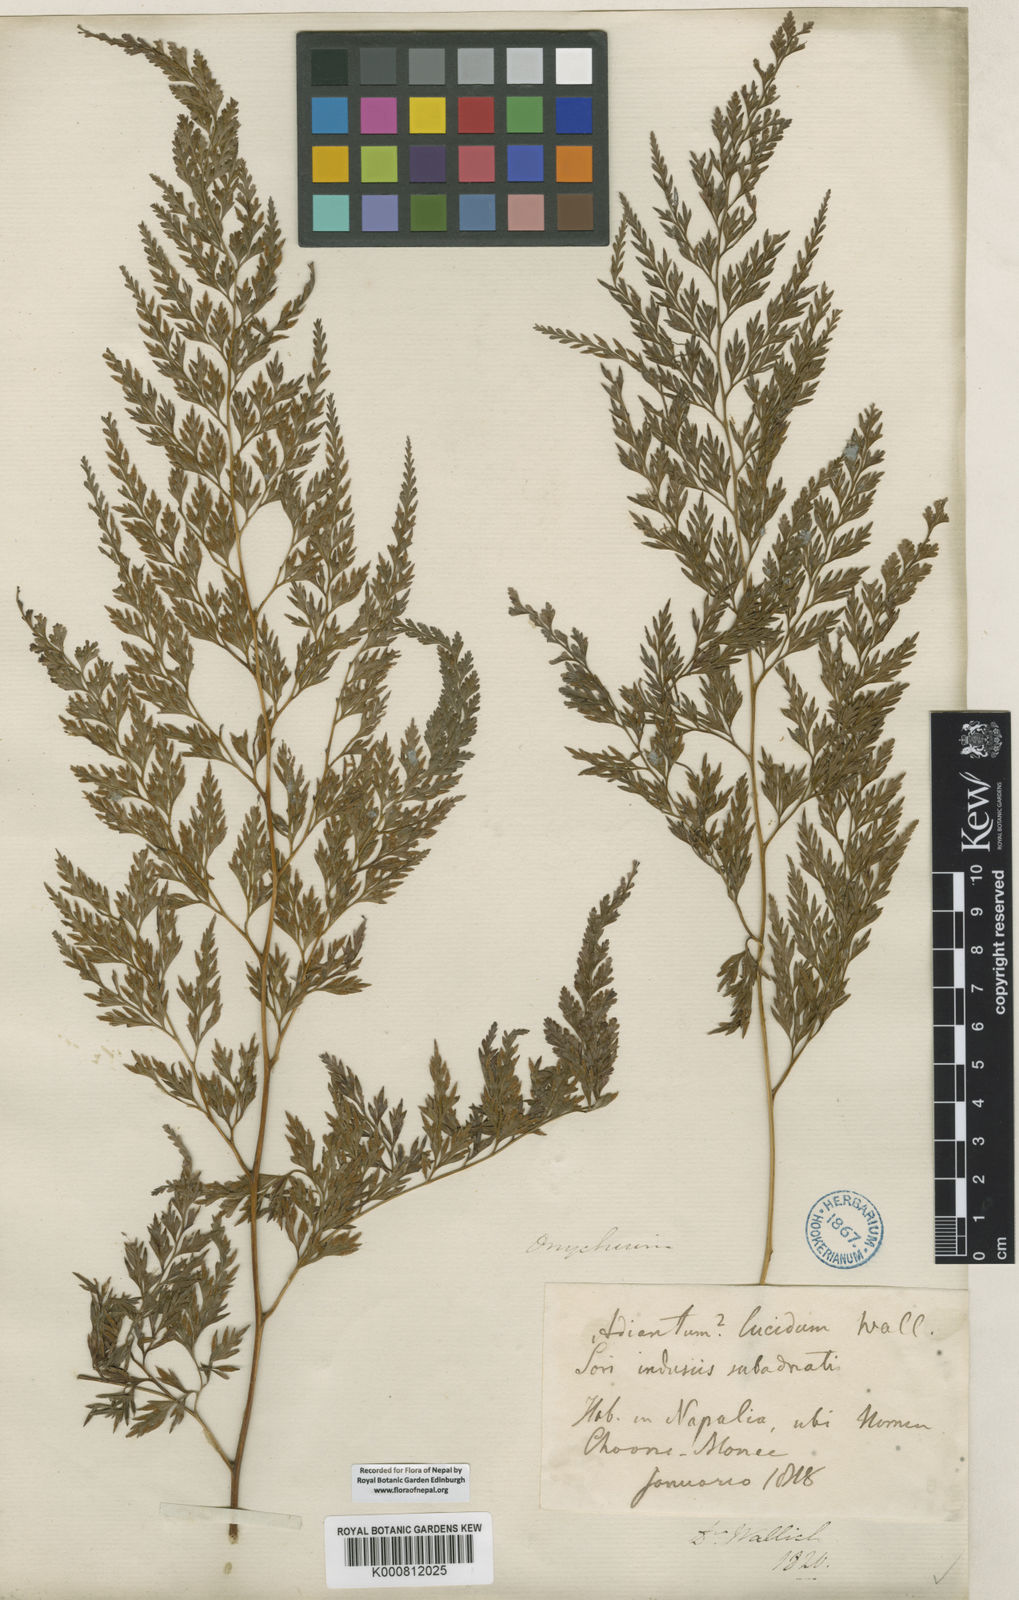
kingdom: Plantae
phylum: Tracheophyta
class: Polypodiopsida
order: Polypodiales
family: Pteridaceae
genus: Onychium
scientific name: Onychium lucidum
